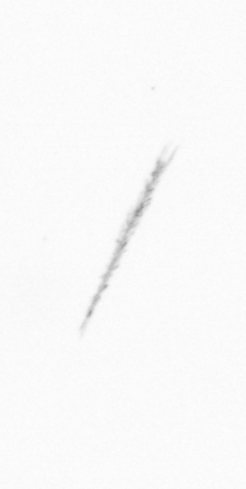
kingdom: Chromista
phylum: Ochrophyta
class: Bacillariophyceae
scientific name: Bacillariophyceae
